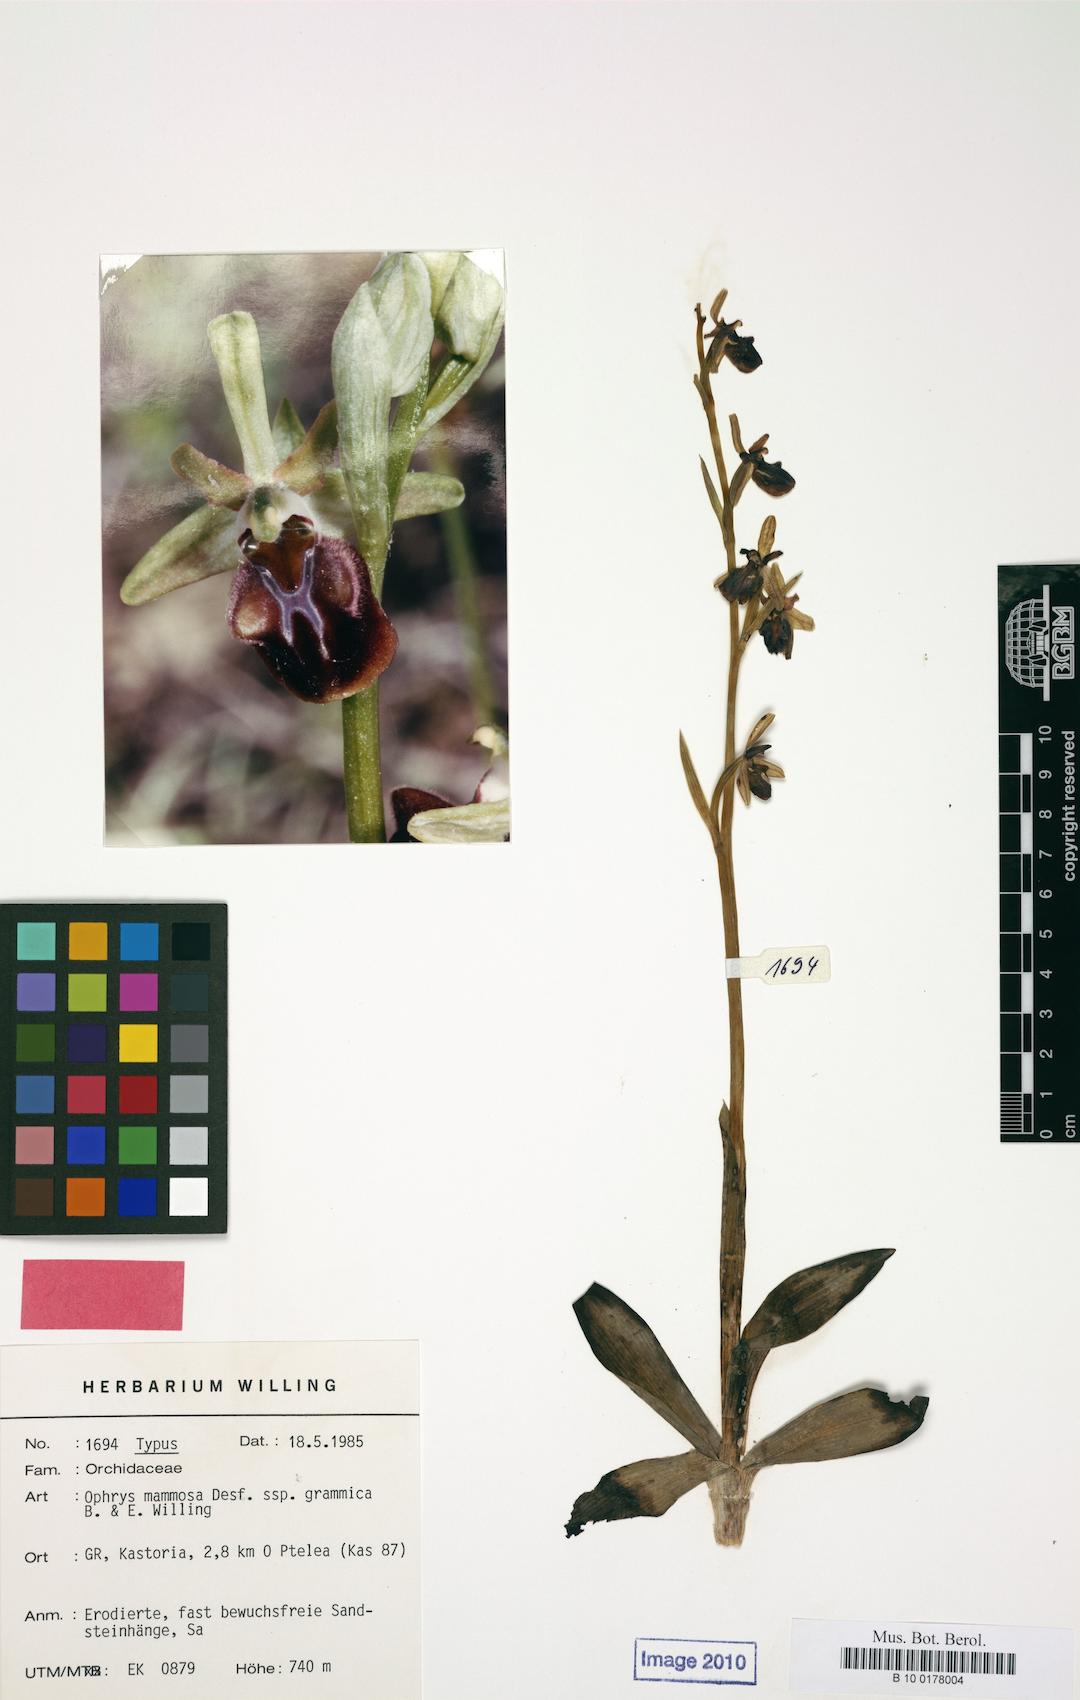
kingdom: Plantae
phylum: Tracheophyta
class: Liliopsida
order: Asparagales
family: Orchidaceae
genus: Ophrys
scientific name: Ophrys sphegodes
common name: Early spider-orchid
